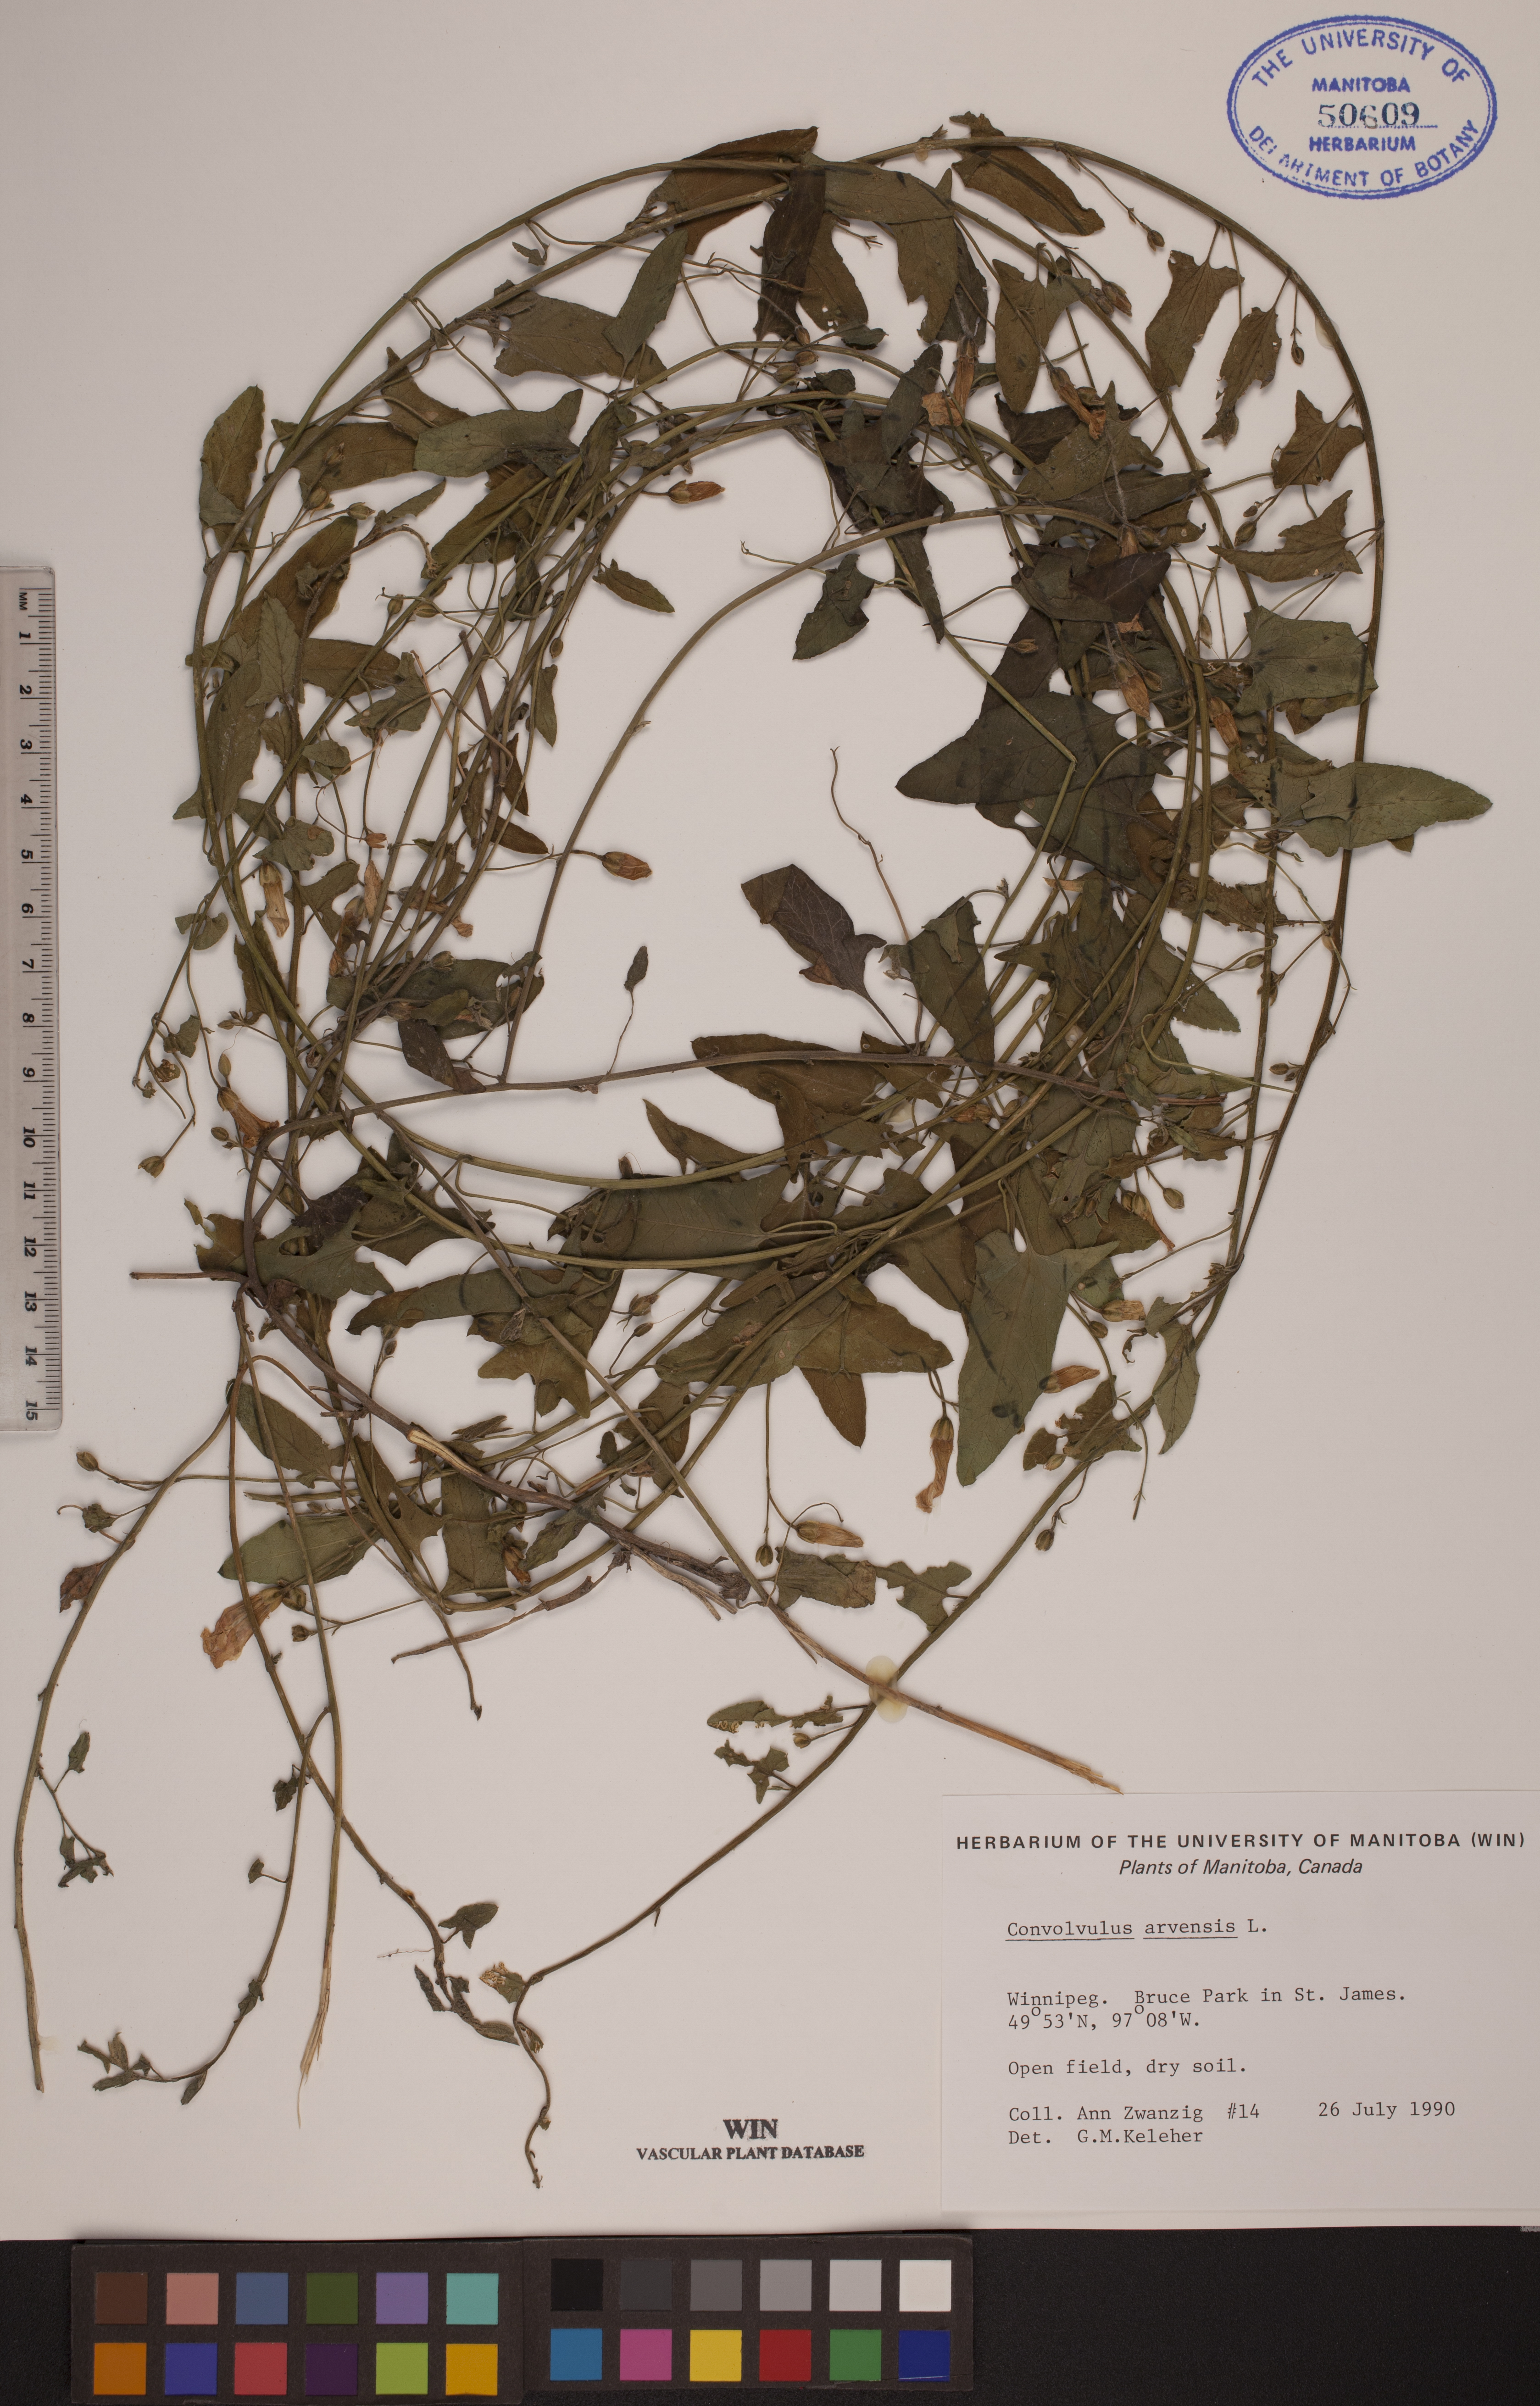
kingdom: Plantae
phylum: Tracheophyta
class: Magnoliopsida
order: Solanales
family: Convolvulaceae
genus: Convolvulus
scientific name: Convolvulus arvensis
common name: Field bindweed
